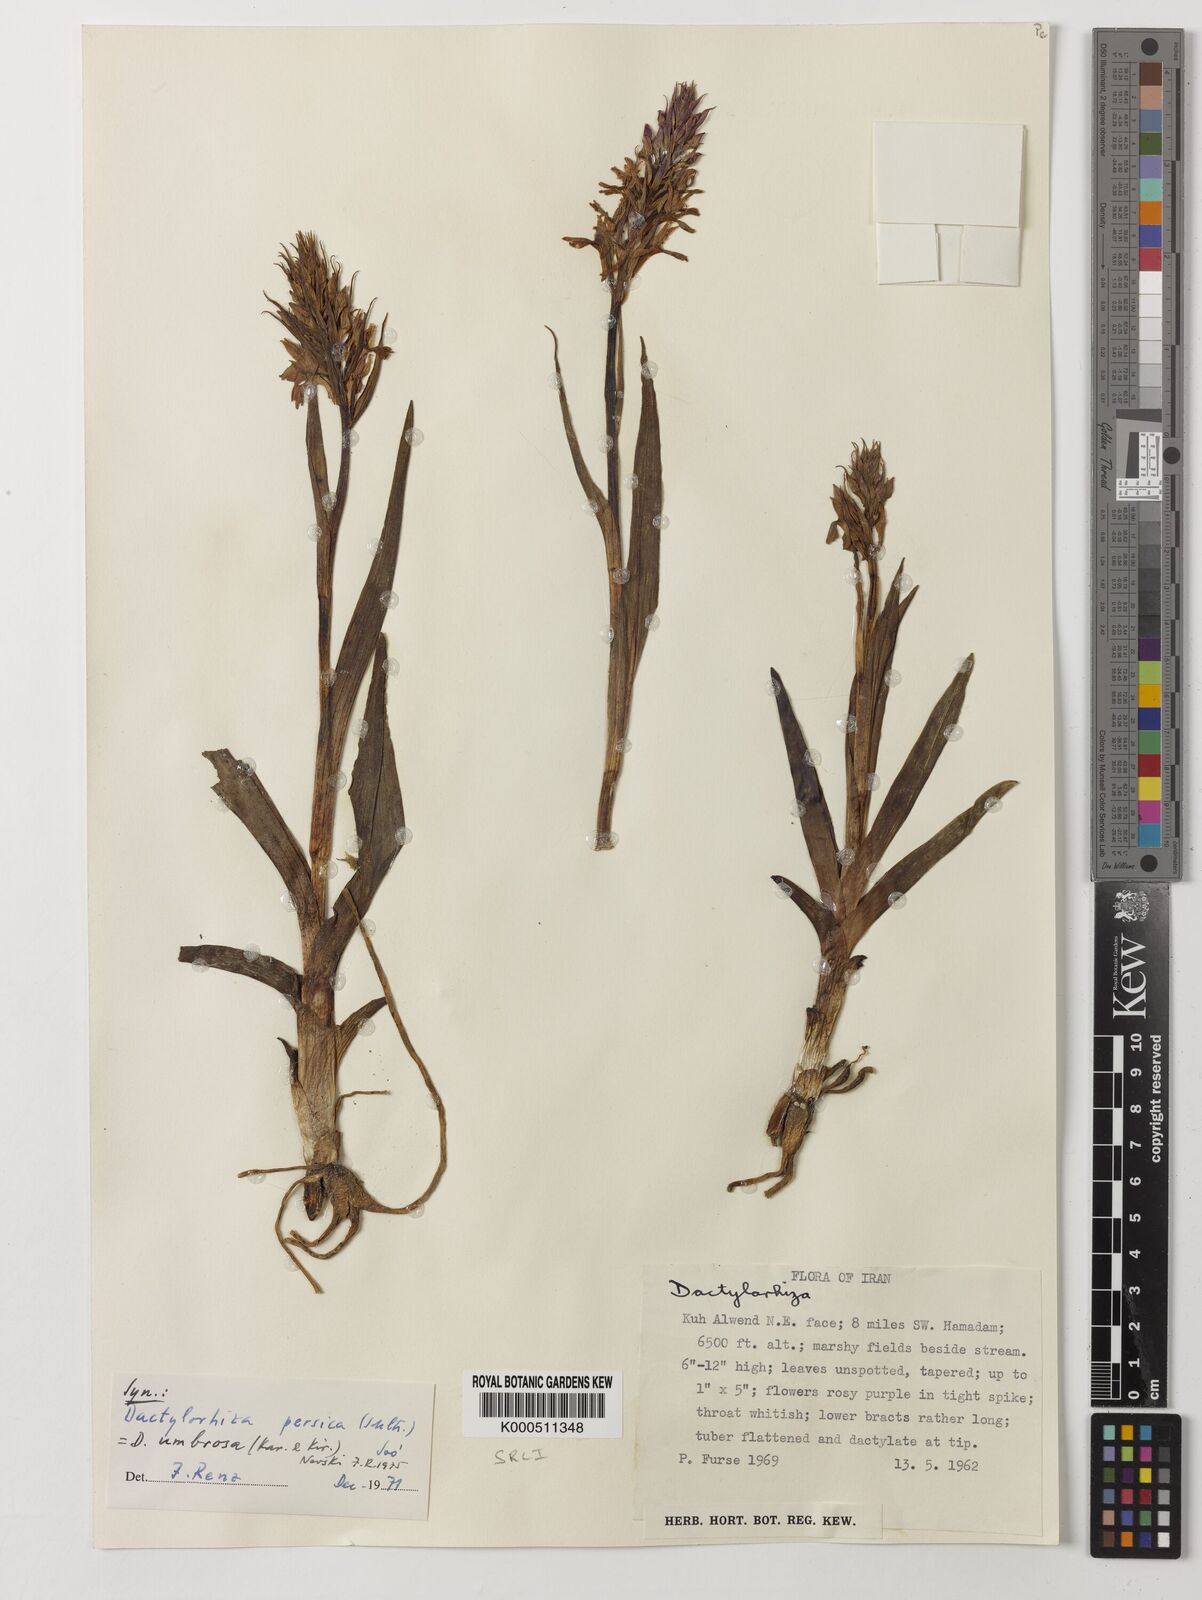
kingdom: Plantae
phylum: Tracheophyta
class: Liliopsida
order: Asparagales
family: Orchidaceae
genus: Dactylorhiza
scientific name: Dactylorhiza
